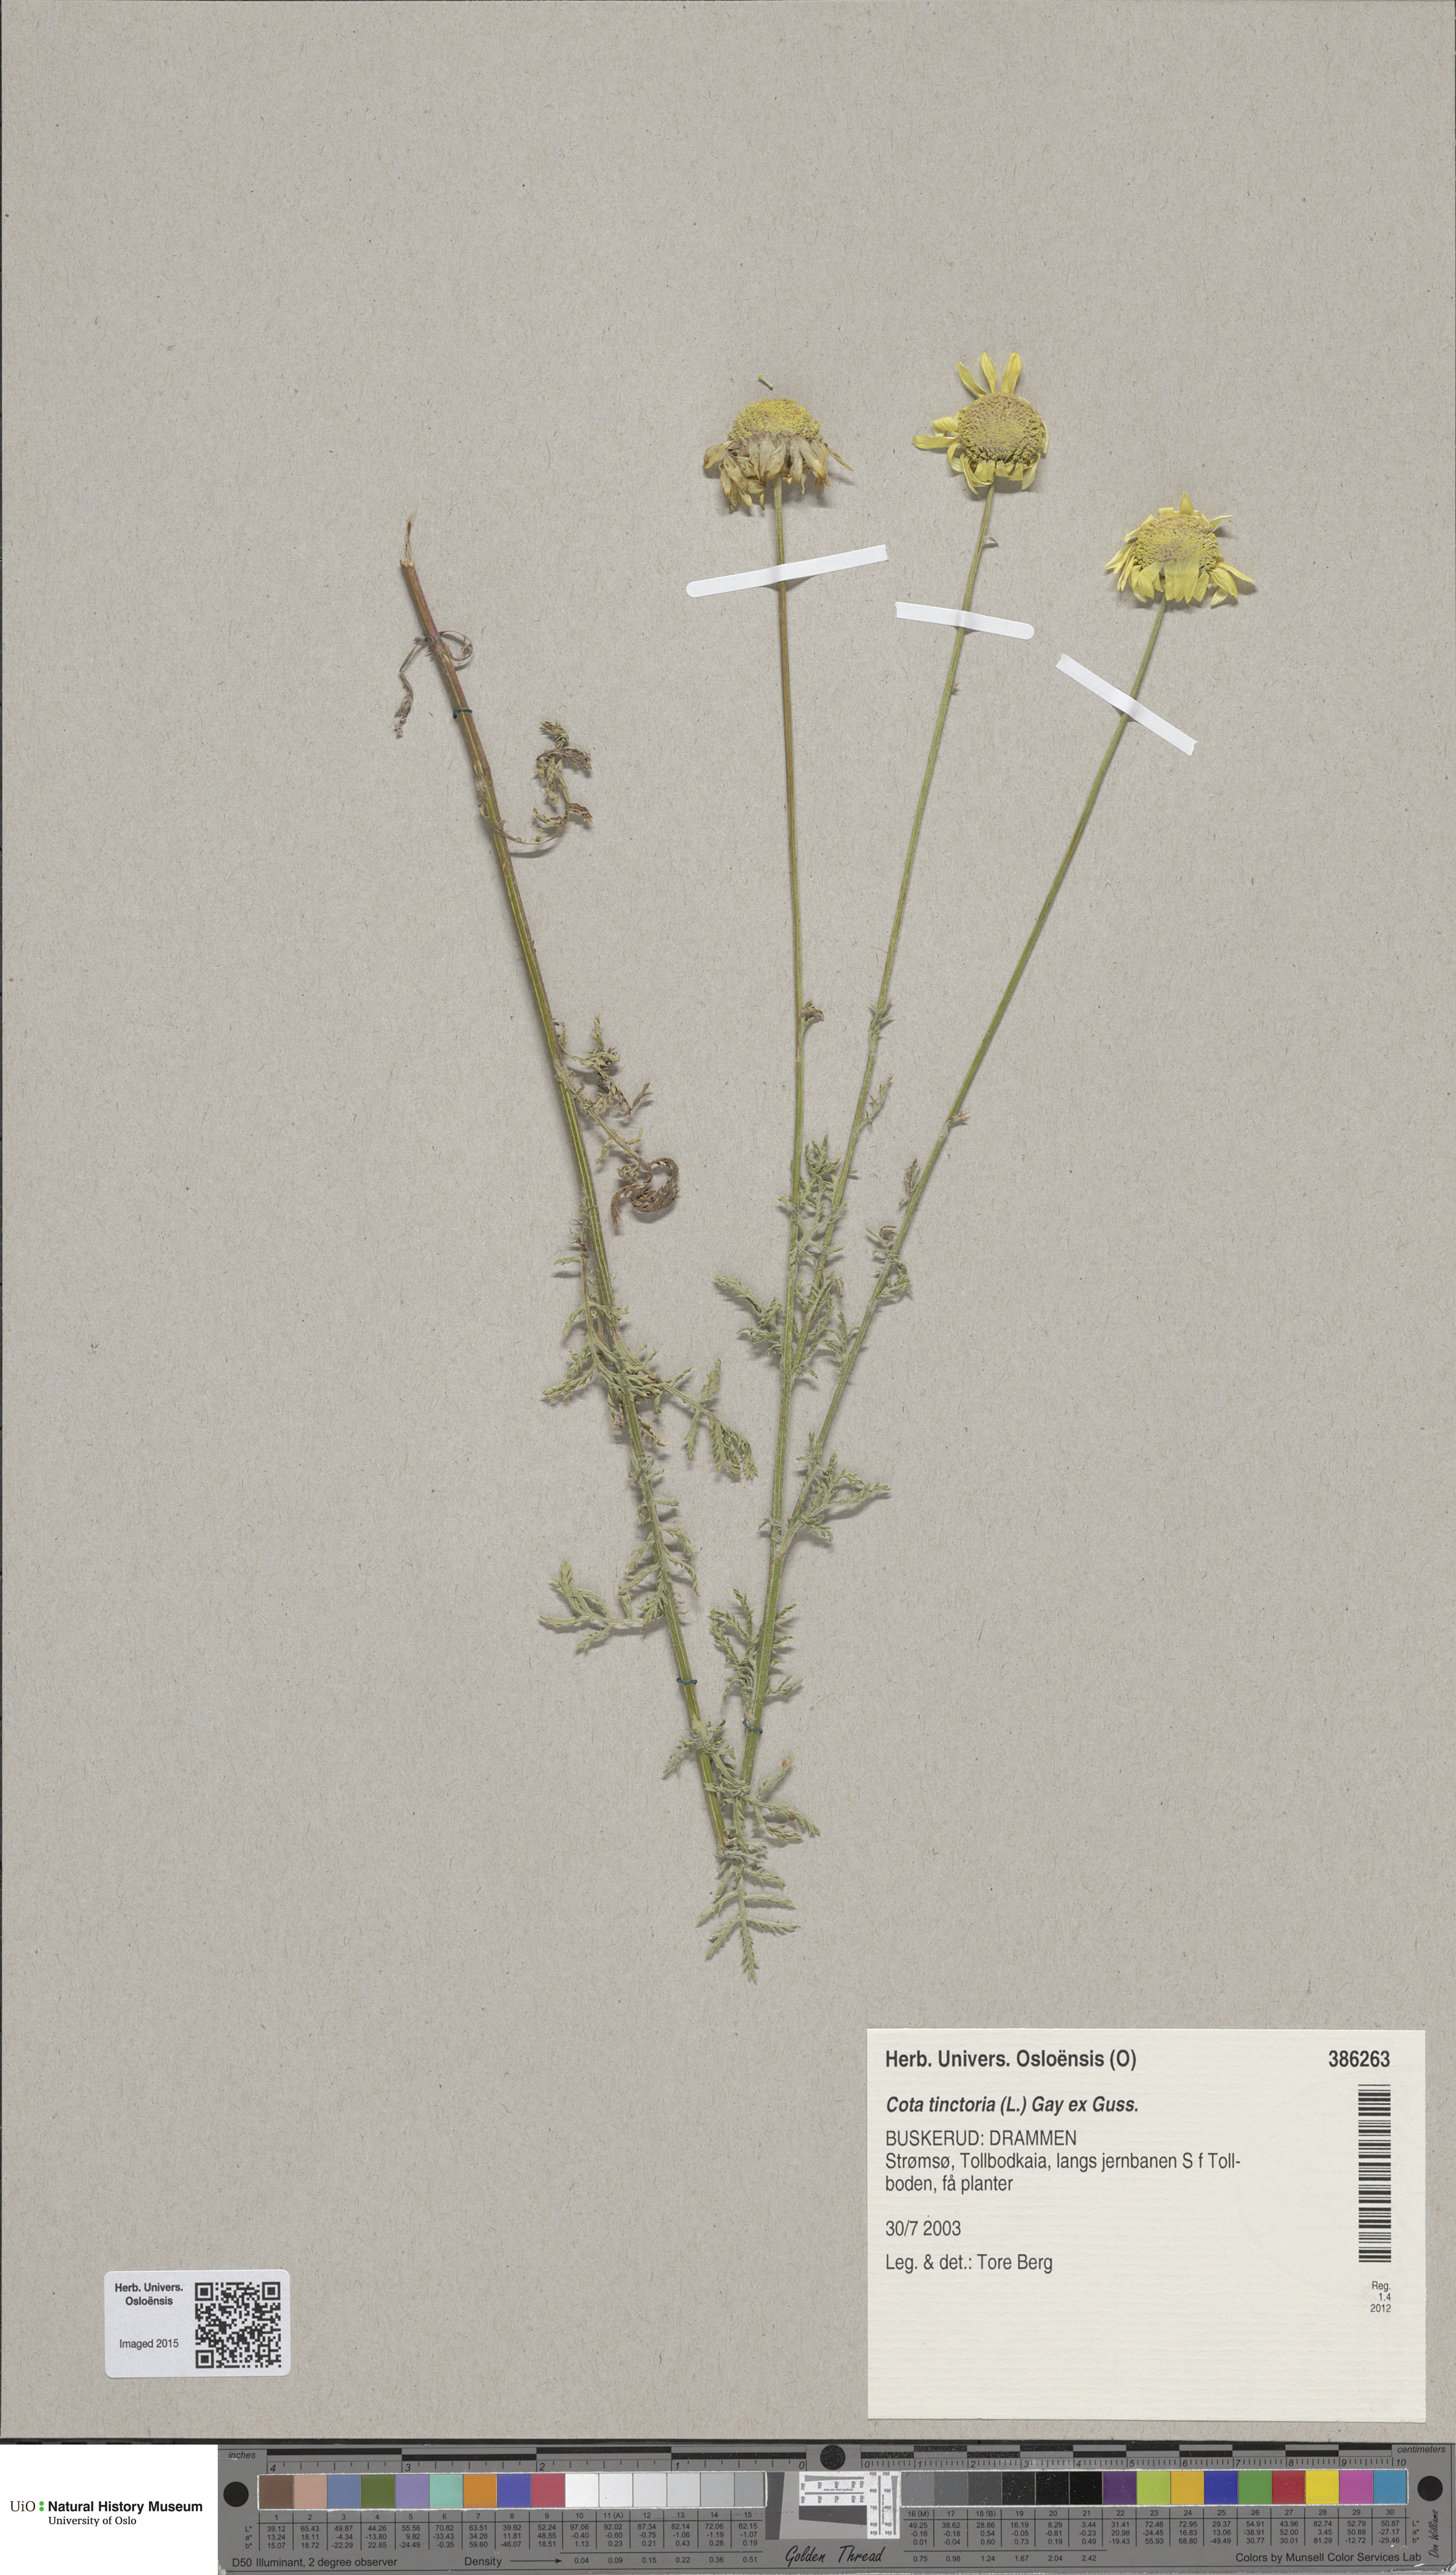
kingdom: Plantae
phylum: Tracheophyta
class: Magnoliopsida
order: Asterales
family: Asteraceae
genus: Cota
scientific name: Cota tinctoria
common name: Golden chamomile
